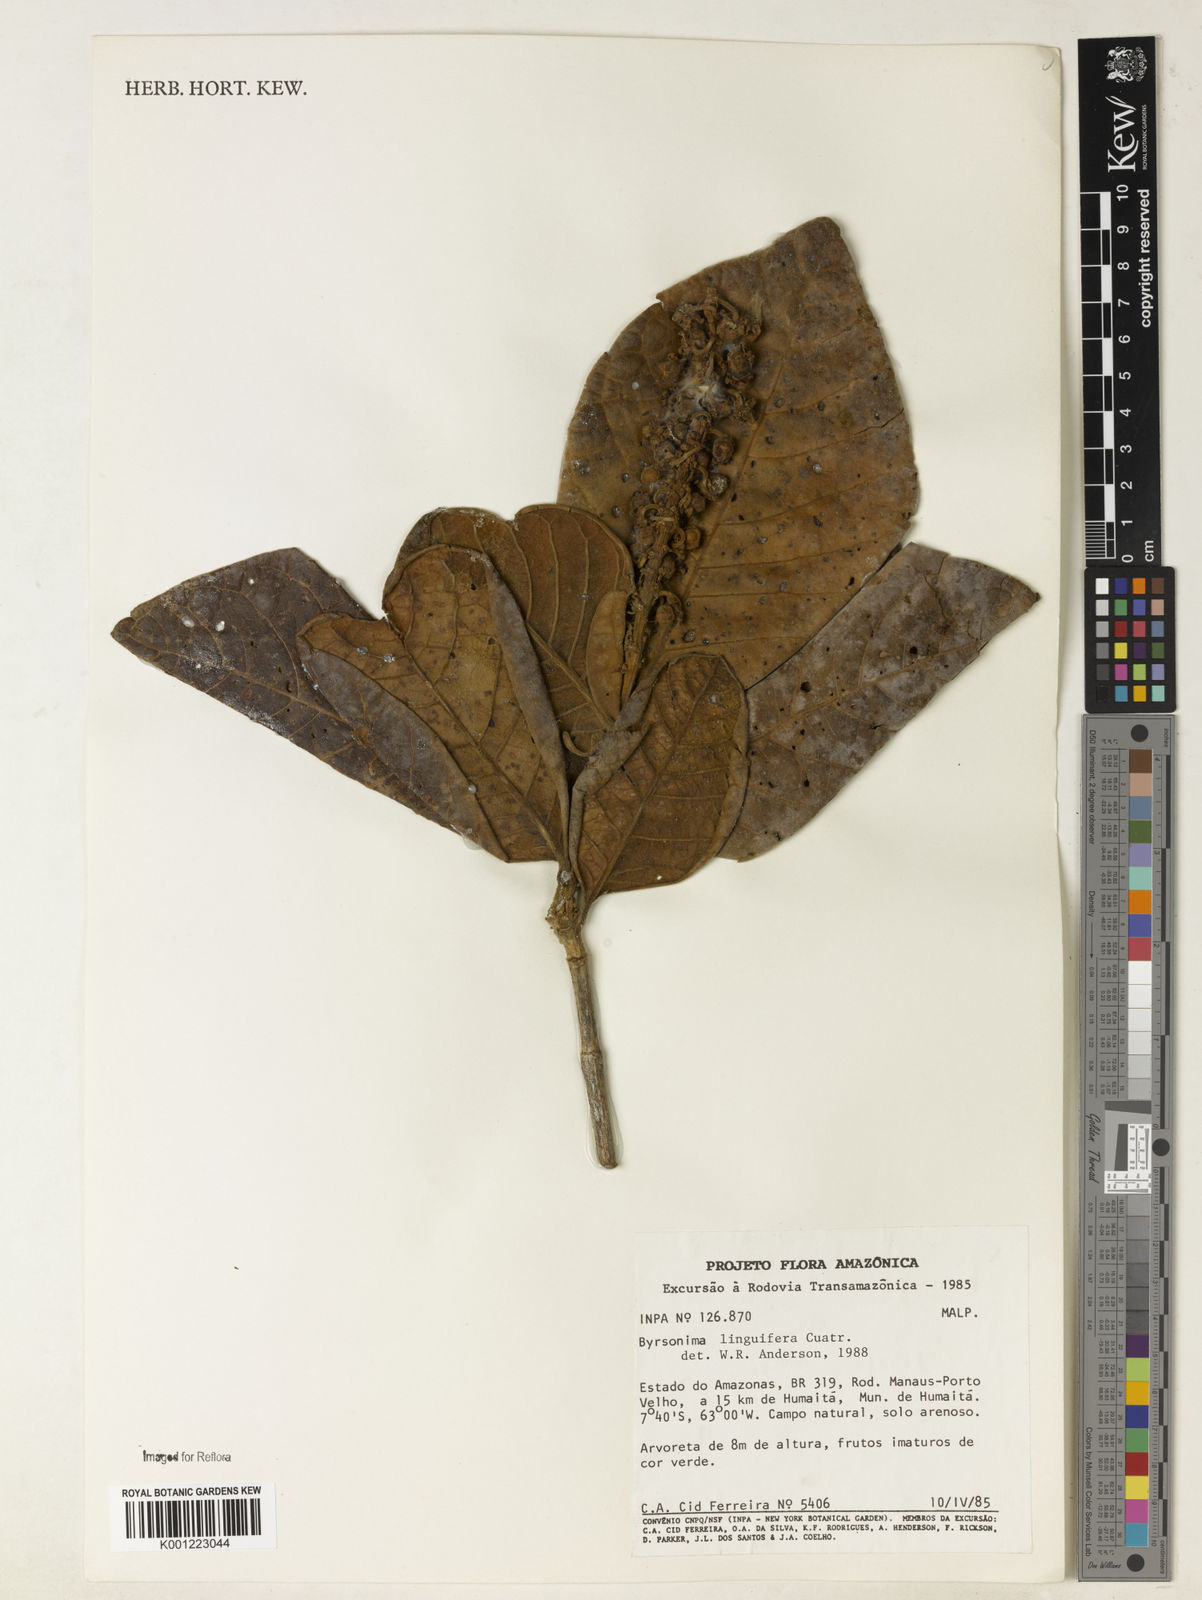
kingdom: Plantae
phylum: Tracheophyta
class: Magnoliopsida
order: Malpighiales
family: Malpighiaceae
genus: Byrsonima
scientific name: Byrsonima linguifera
